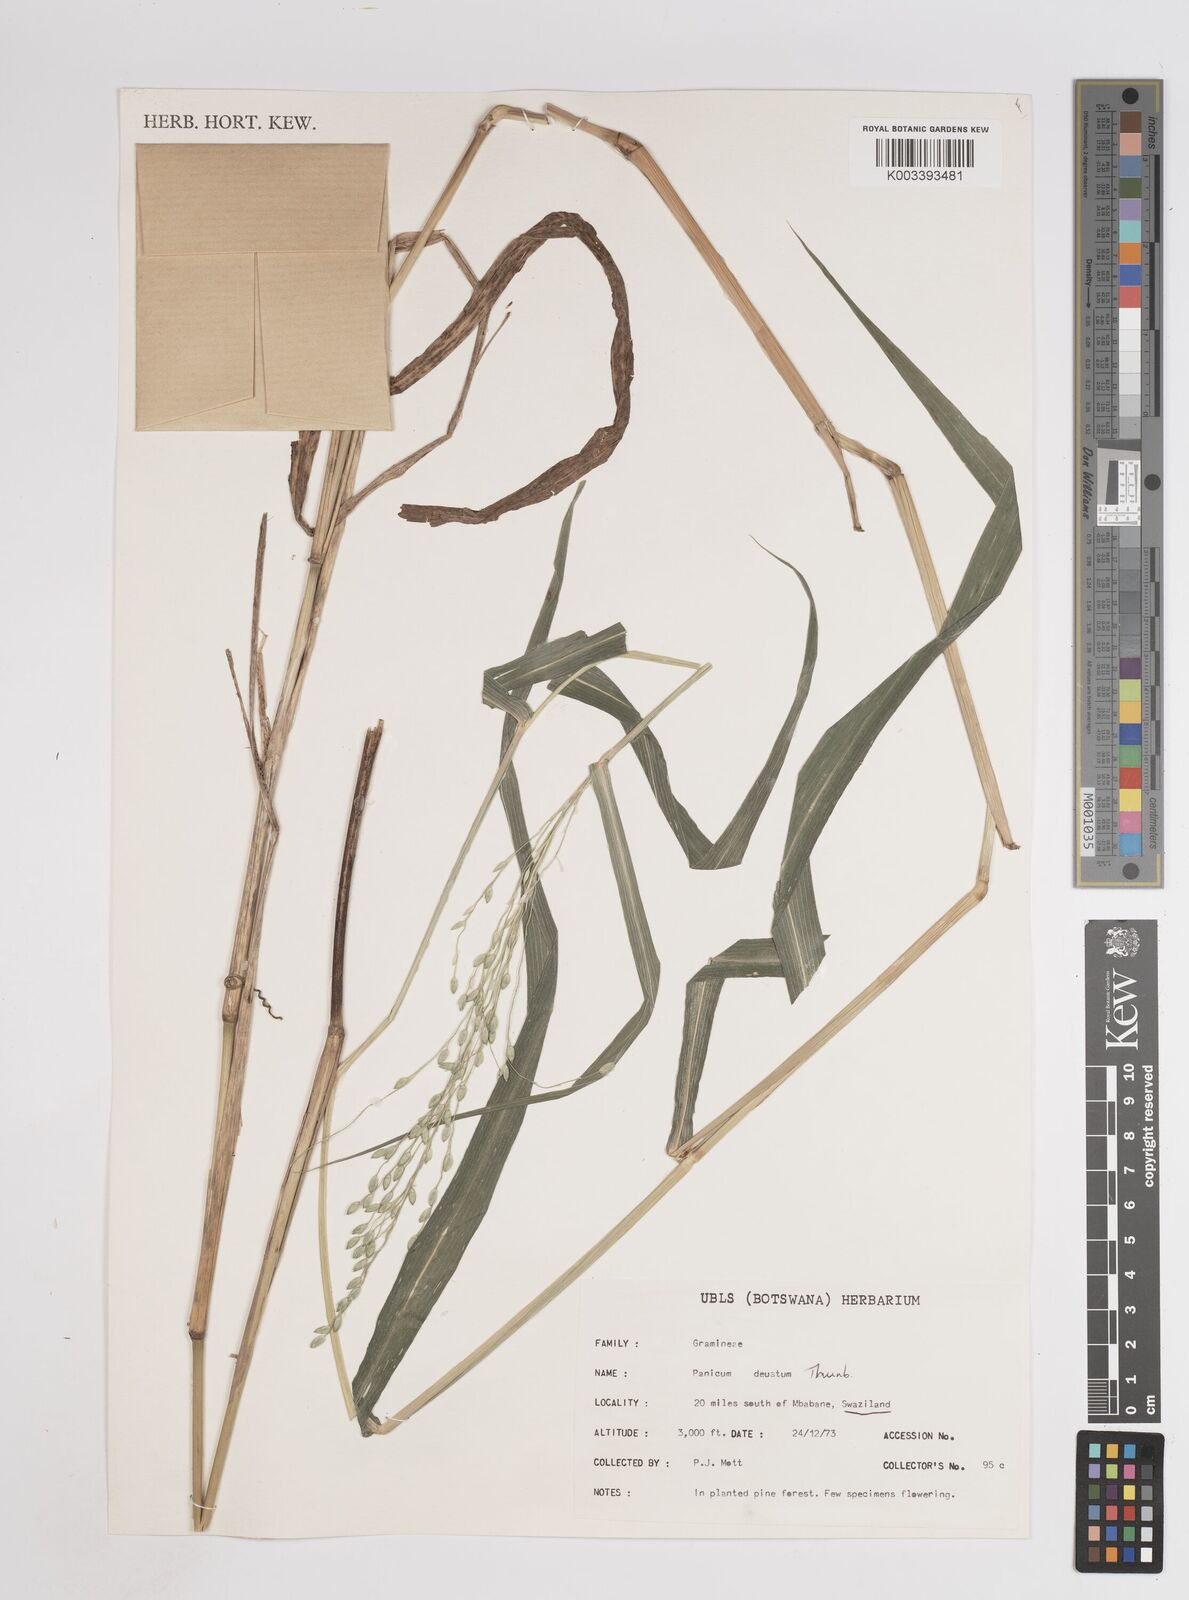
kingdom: Plantae
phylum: Tracheophyta
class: Liliopsida
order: Poales
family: Poaceae
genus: Panicum
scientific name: Panicum deustum
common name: Reed panicum
